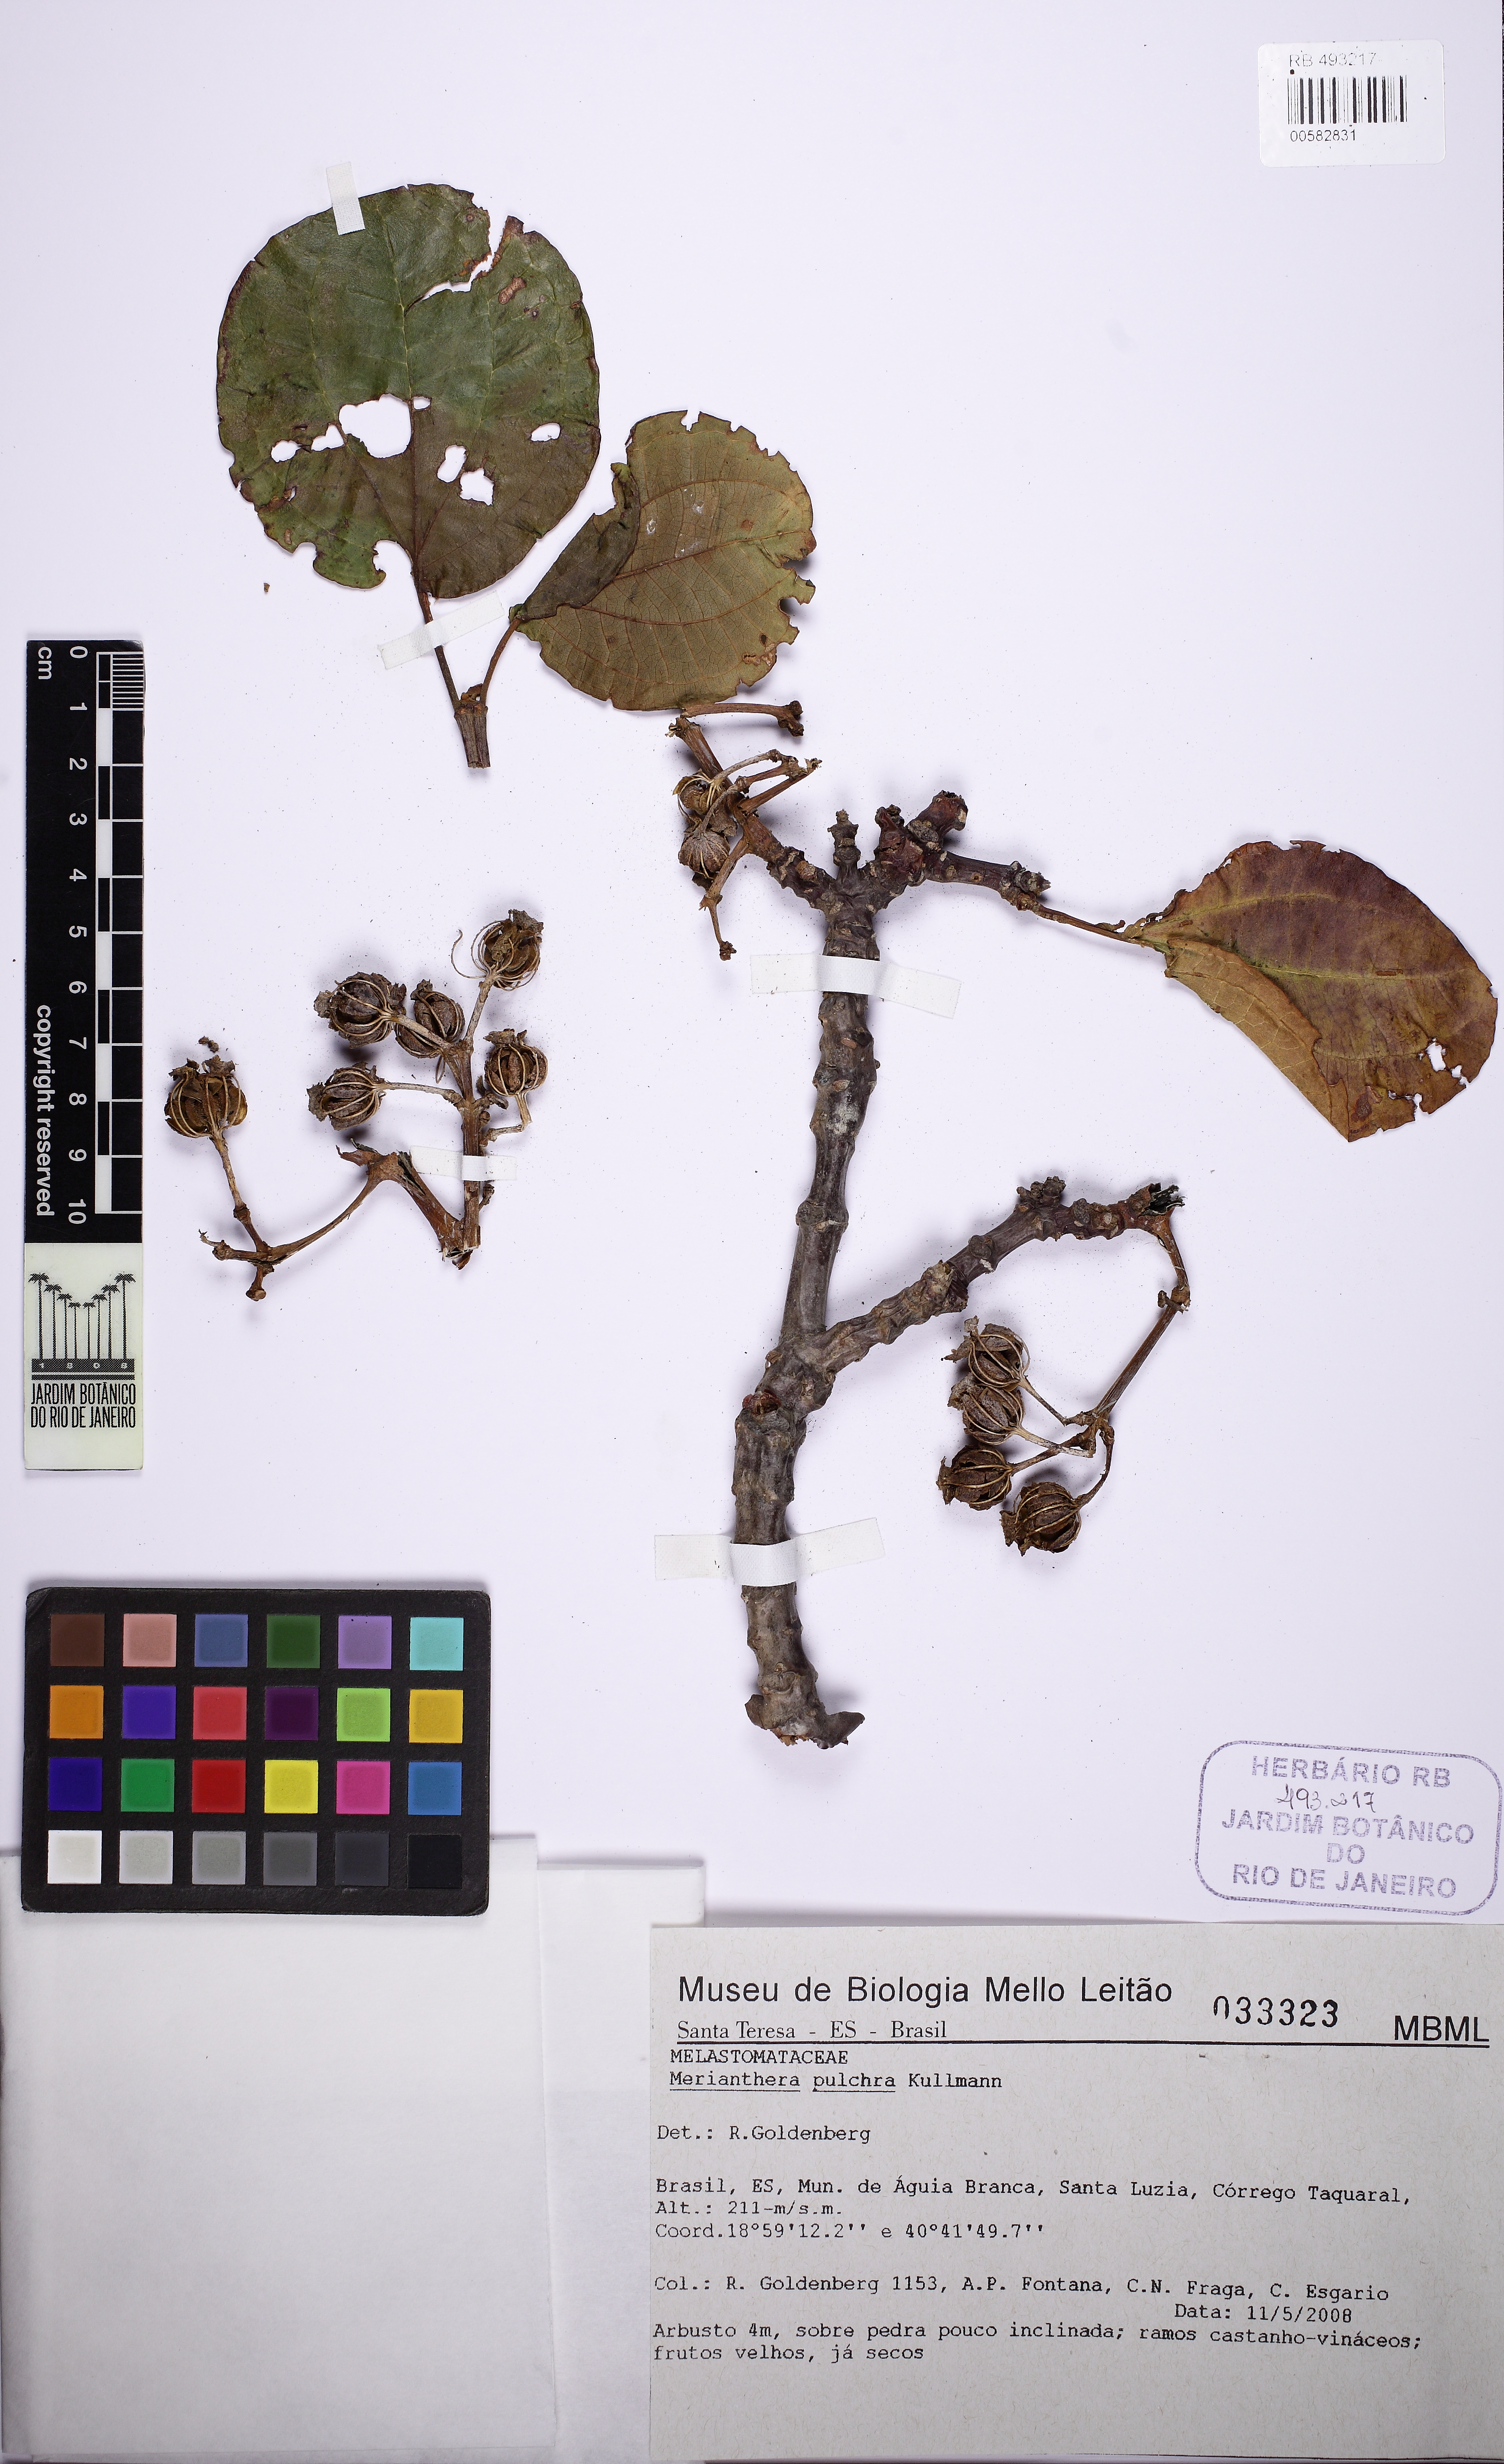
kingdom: Plantae
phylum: Tracheophyta
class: Magnoliopsida
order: Myrtales
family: Melastomataceae
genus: Merianthera
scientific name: Merianthera pulchra
